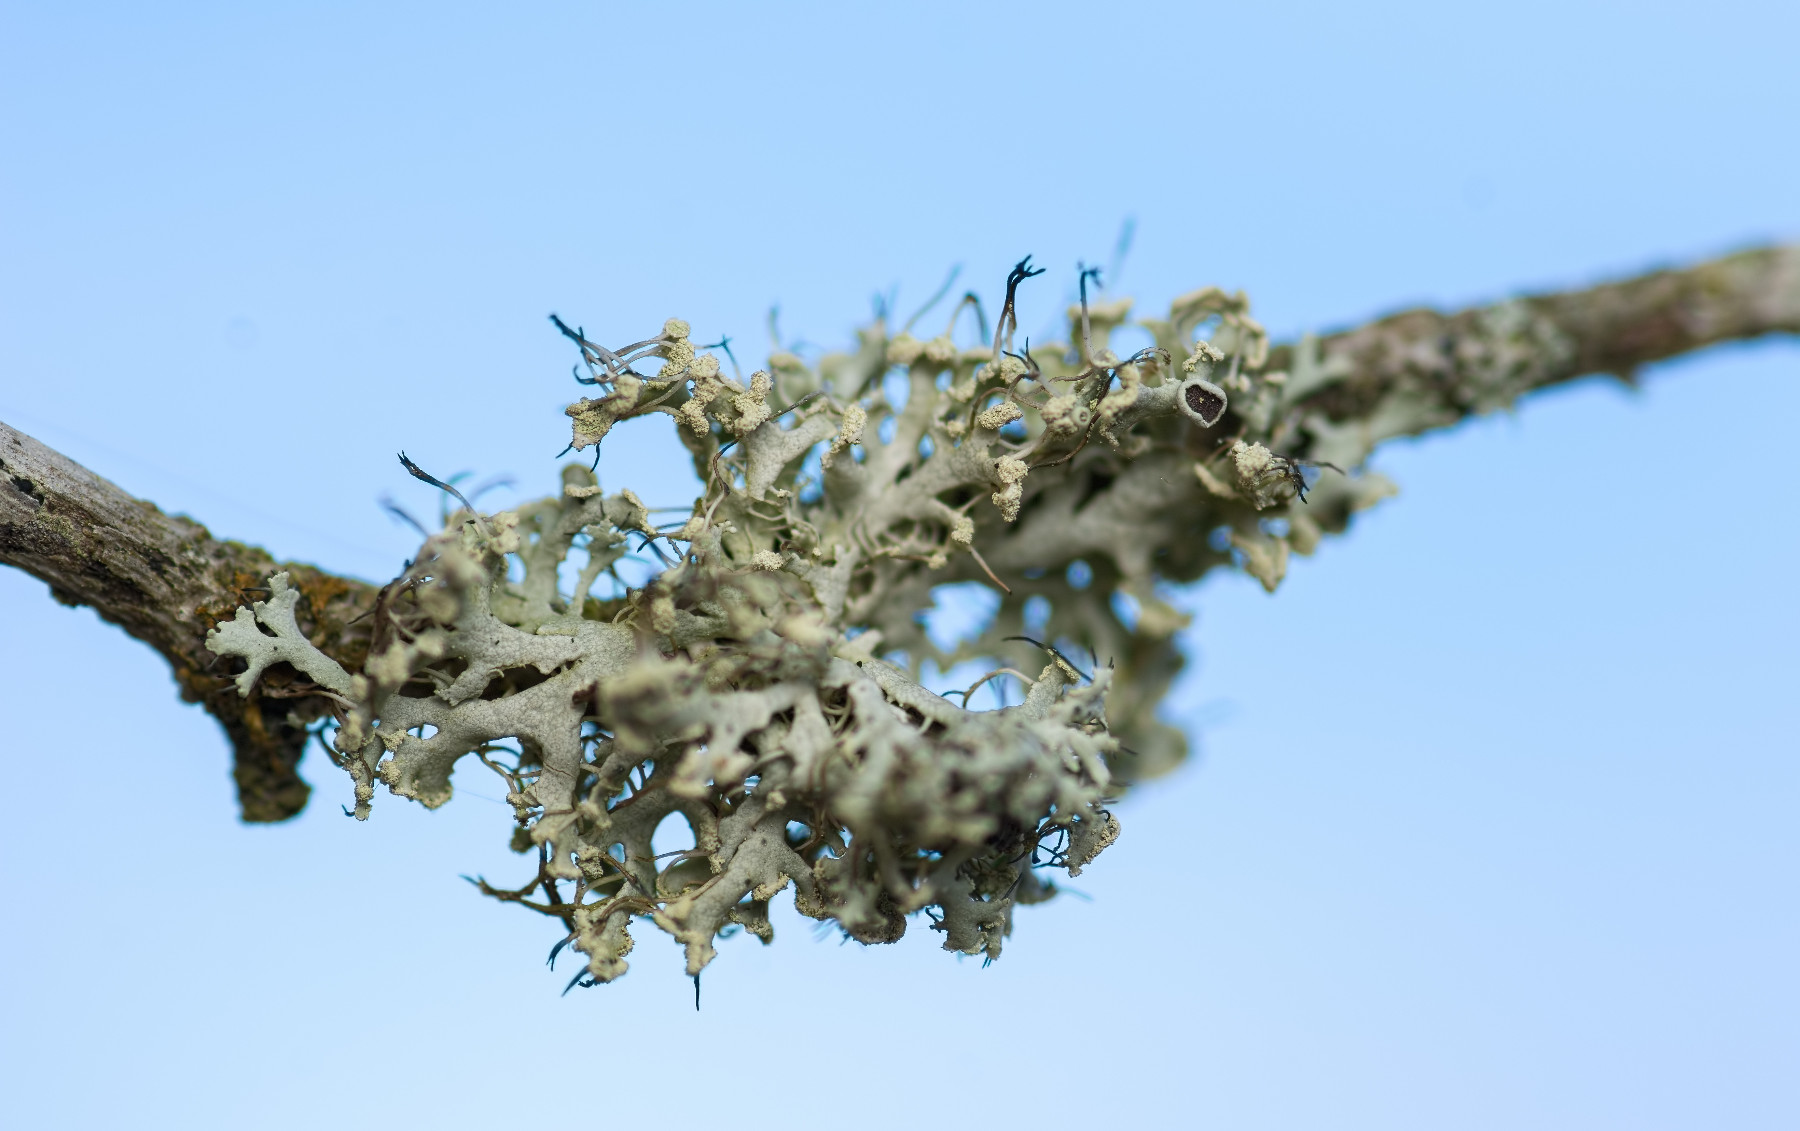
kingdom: Fungi
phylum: Ascomycota
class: Lecanoromycetes
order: Caliciales
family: Physciaceae
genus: Physcia
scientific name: Physcia tenella
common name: spæd rosetlav
